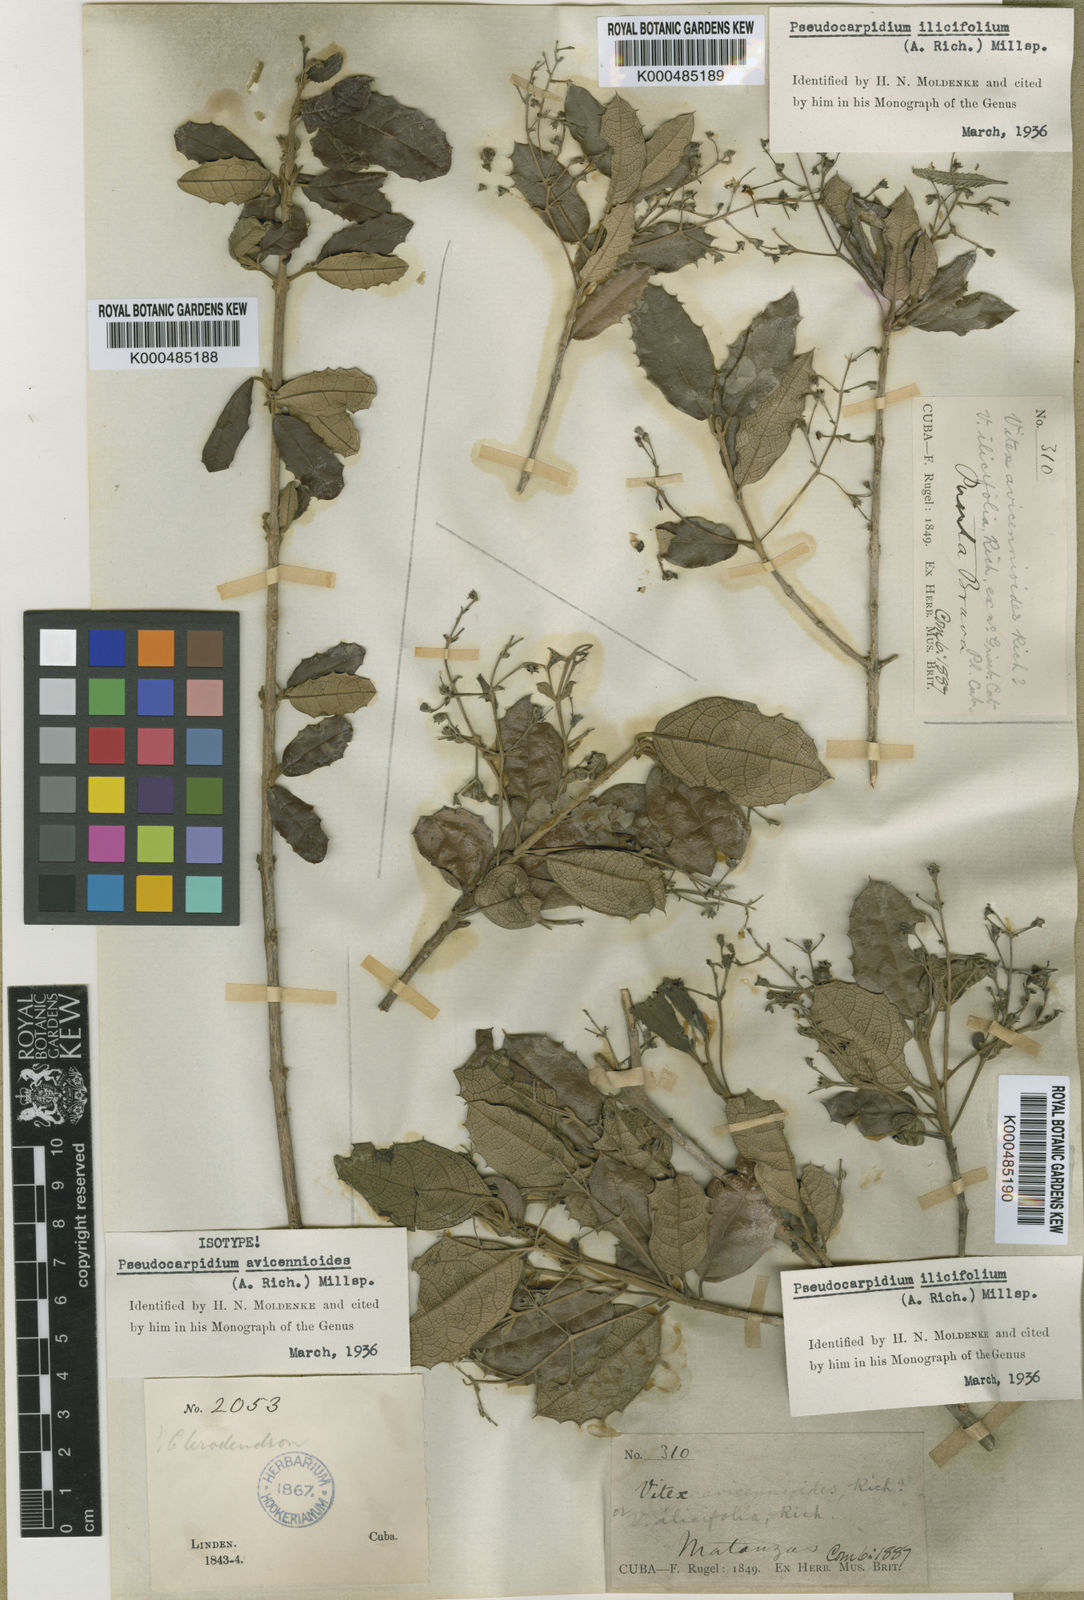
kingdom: Plantae
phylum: Tracheophyta
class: Magnoliopsida
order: Lamiales
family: Lamiaceae
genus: Pseudocarpidium
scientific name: Pseudocarpidium avicennioides
